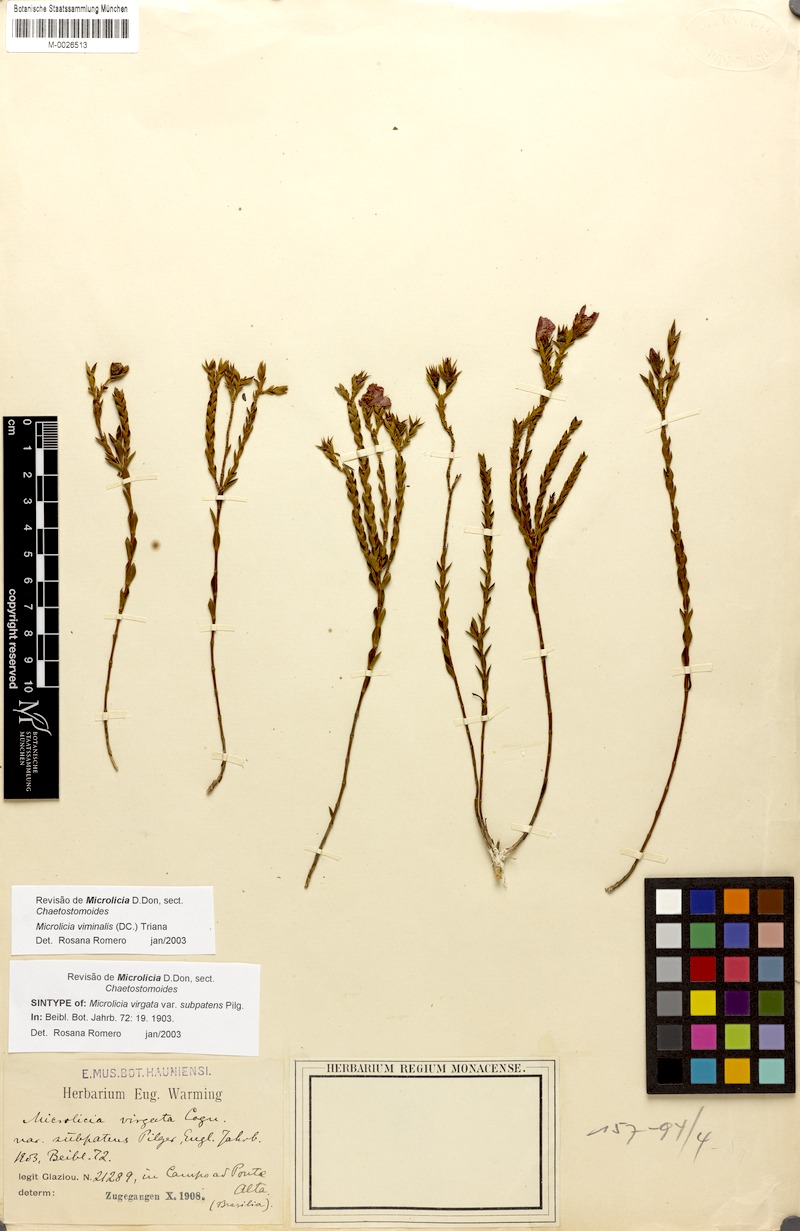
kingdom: Plantae
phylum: Tracheophyta
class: Magnoliopsida
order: Myrtales
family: Melastomataceae
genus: Microlicia
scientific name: Microlicia viminalis
